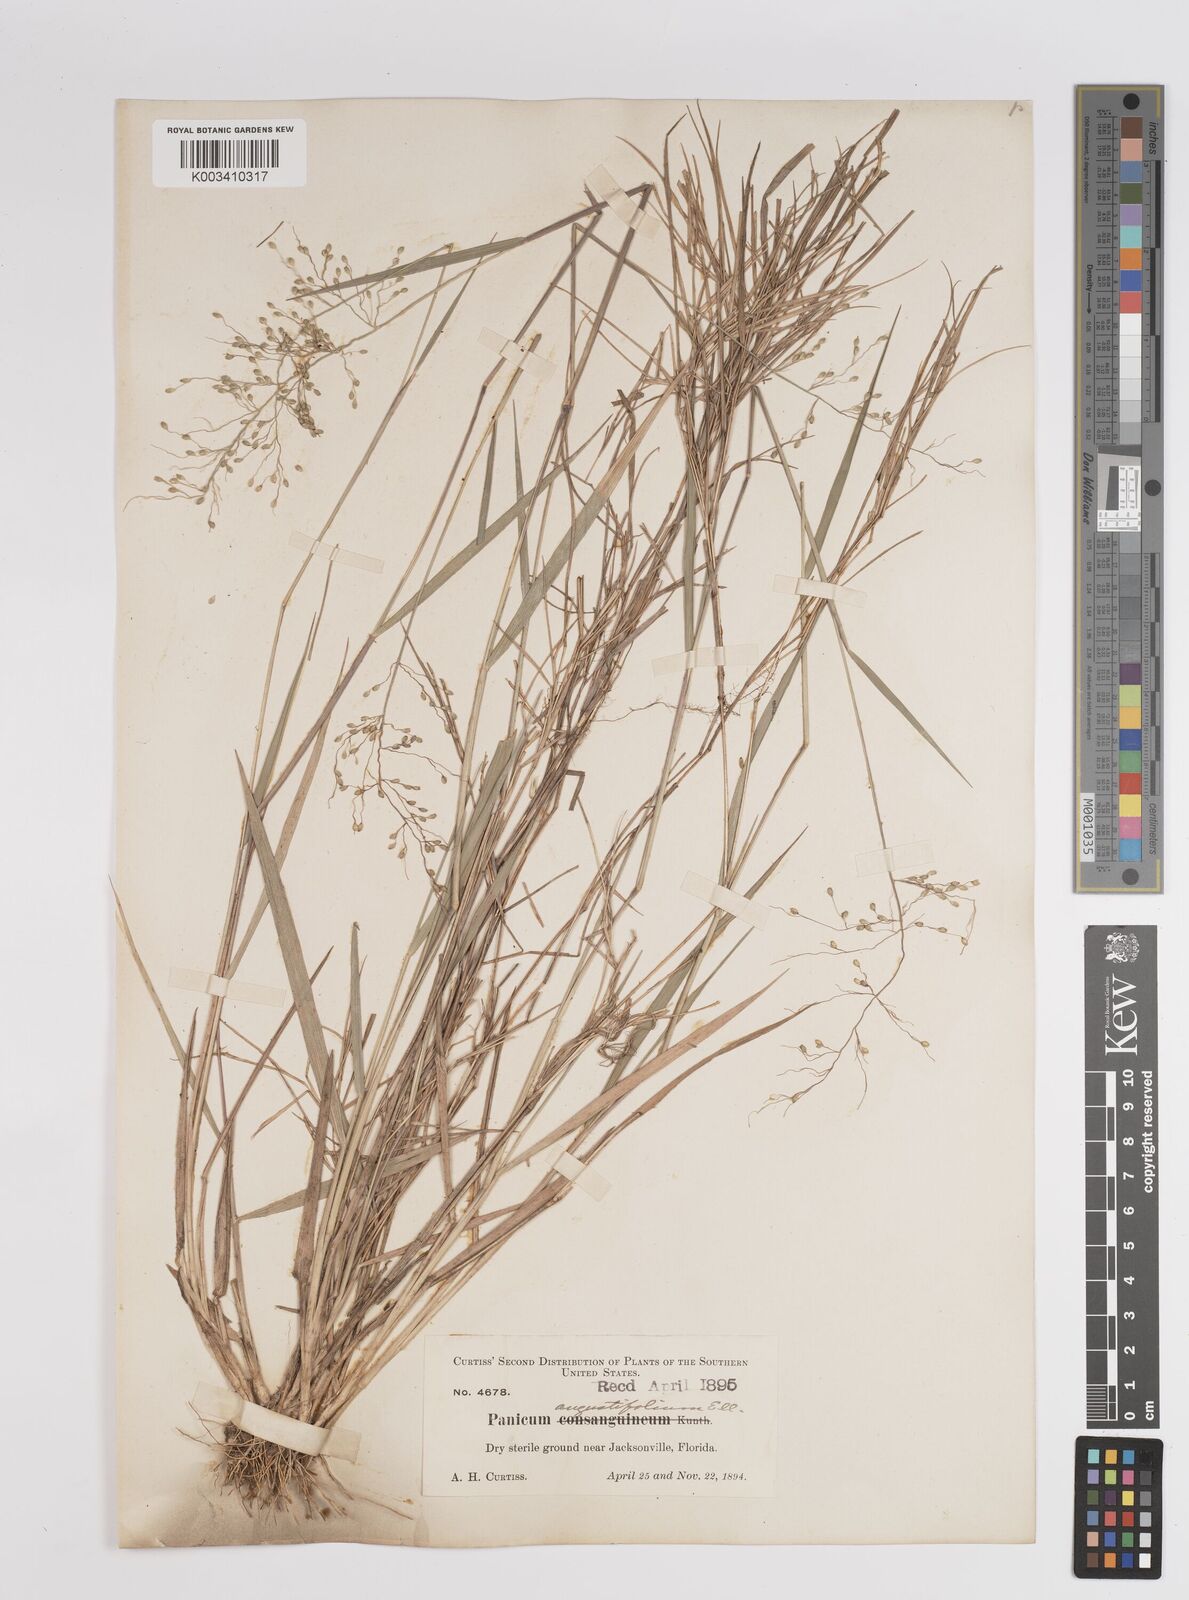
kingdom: Plantae
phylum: Tracheophyta
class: Liliopsida
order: Poales
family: Poaceae
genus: Dichanthelium
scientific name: Dichanthelium aciculare
